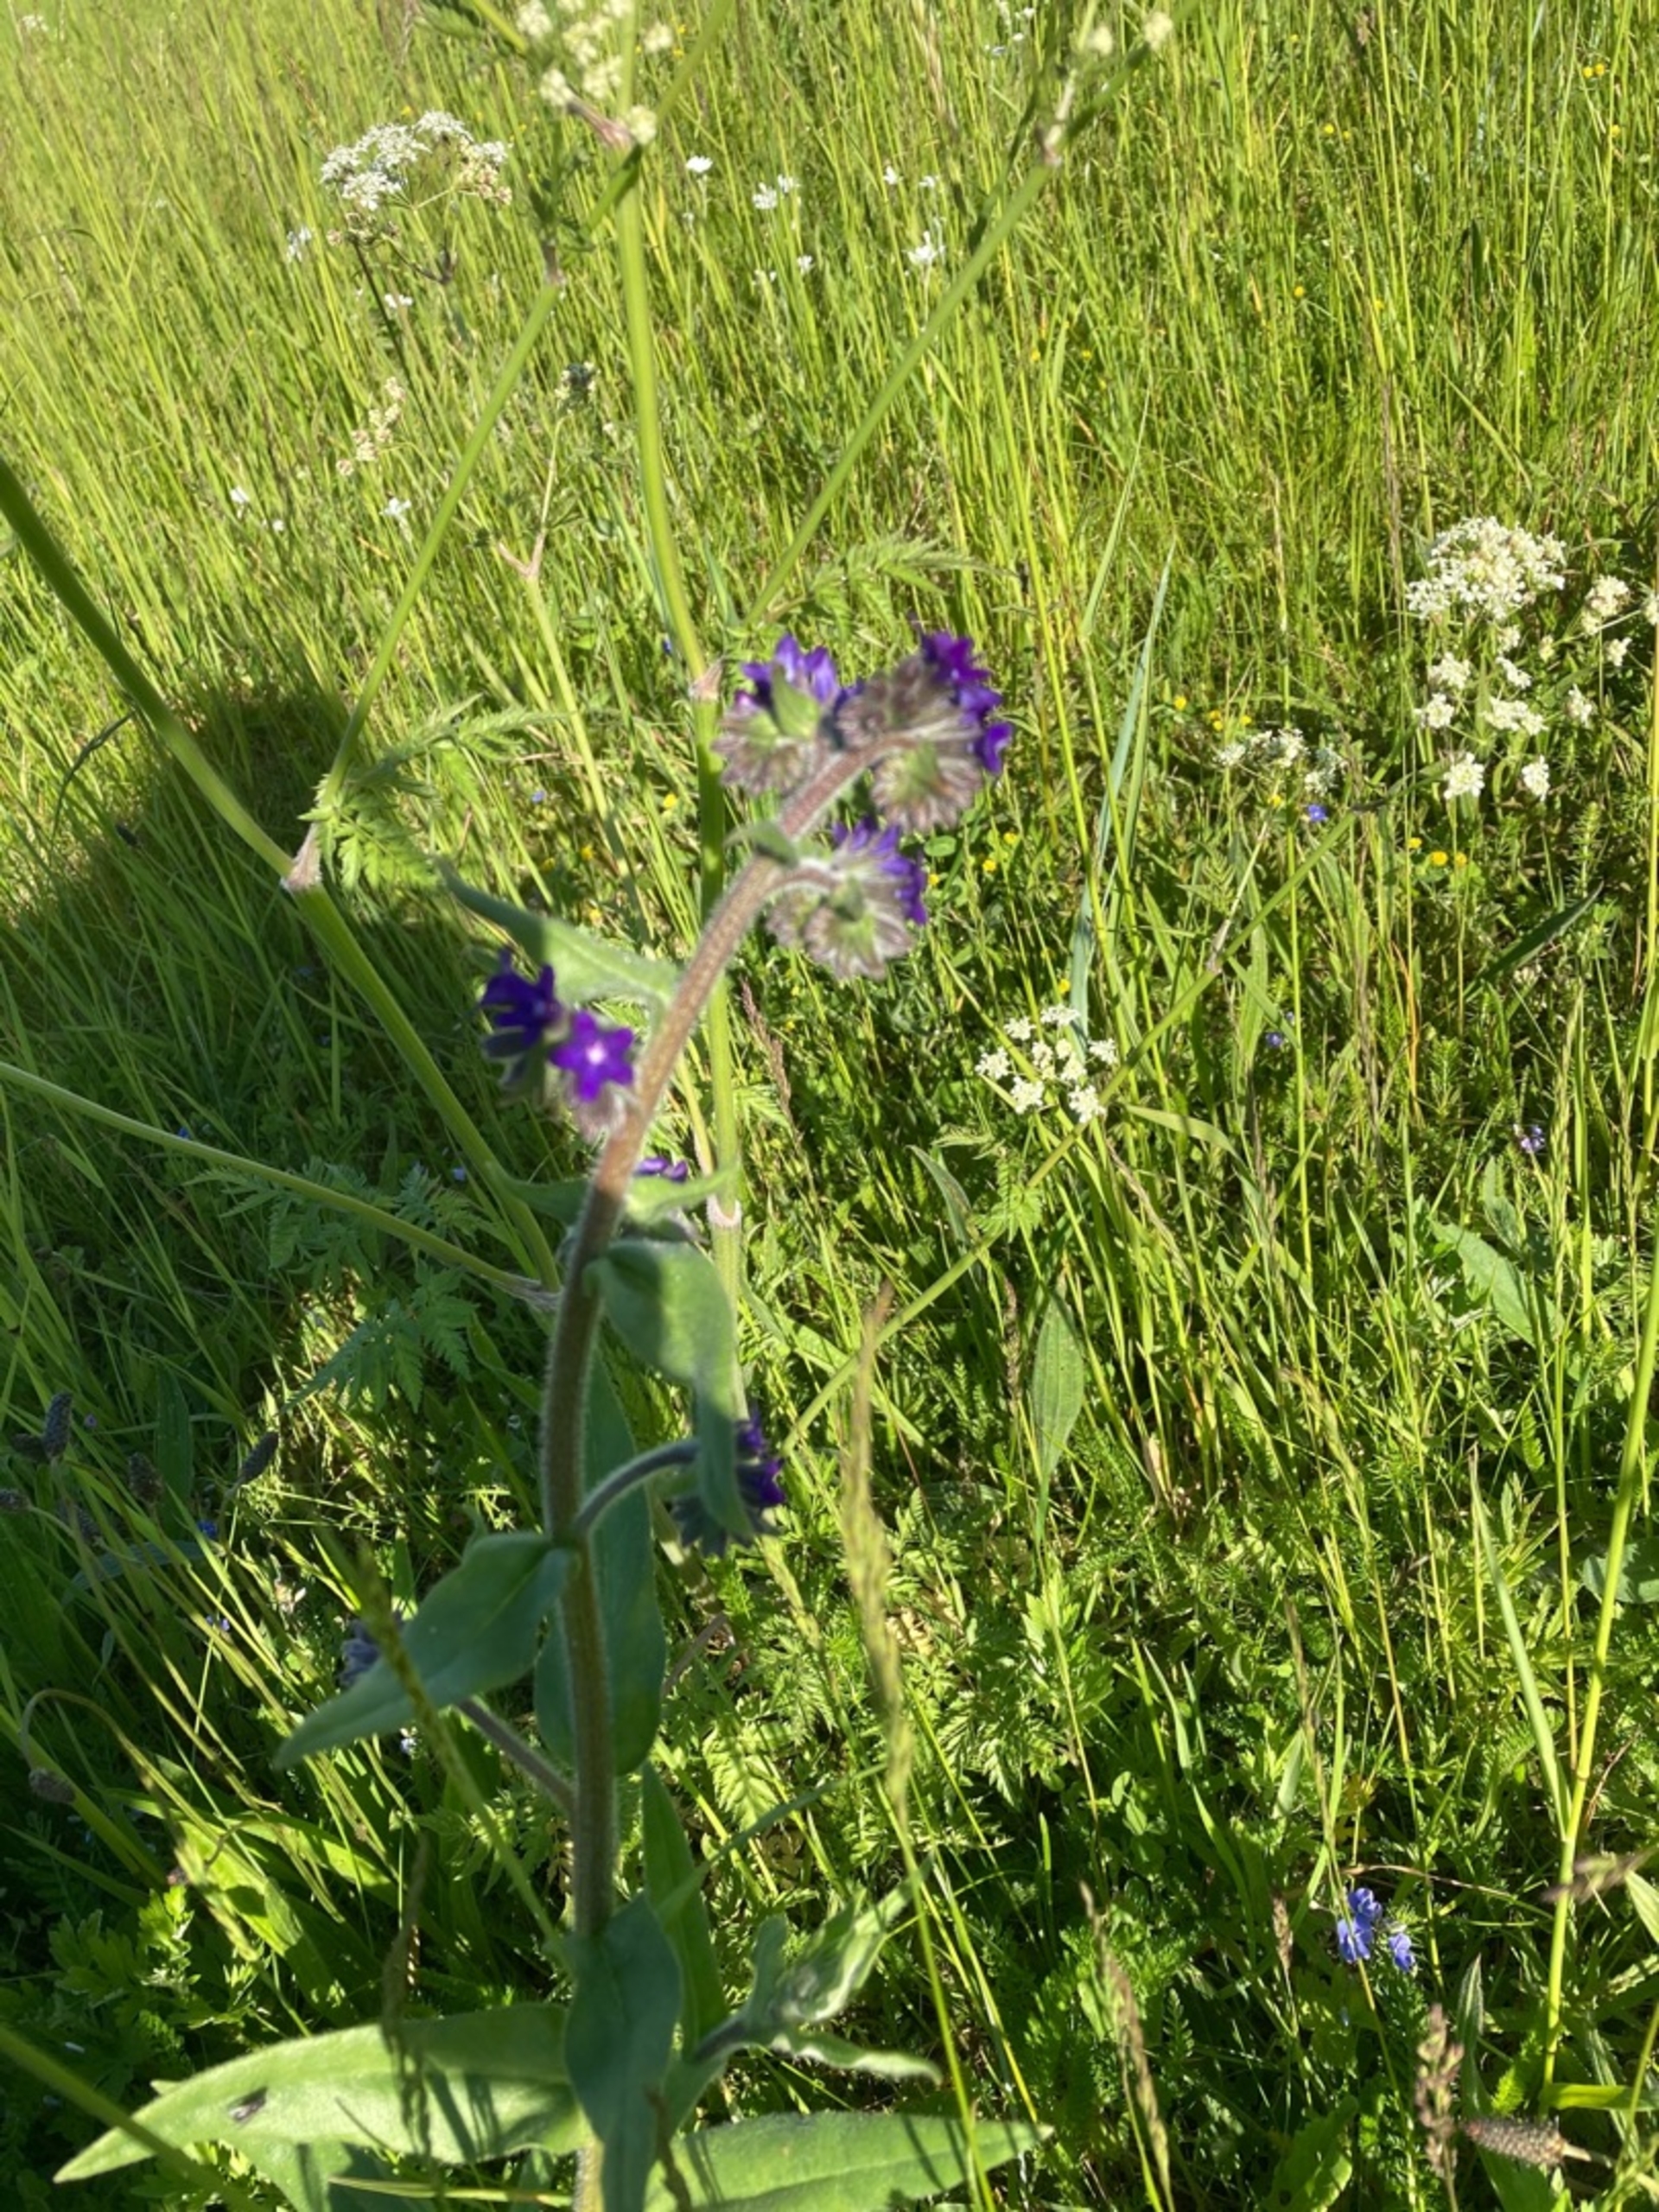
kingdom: Plantae
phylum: Tracheophyta
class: Magnoliopsida
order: Boraginales
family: Boraginaceae
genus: Anchusa
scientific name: Anchusa officinalis
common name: Læge-oksetunge
